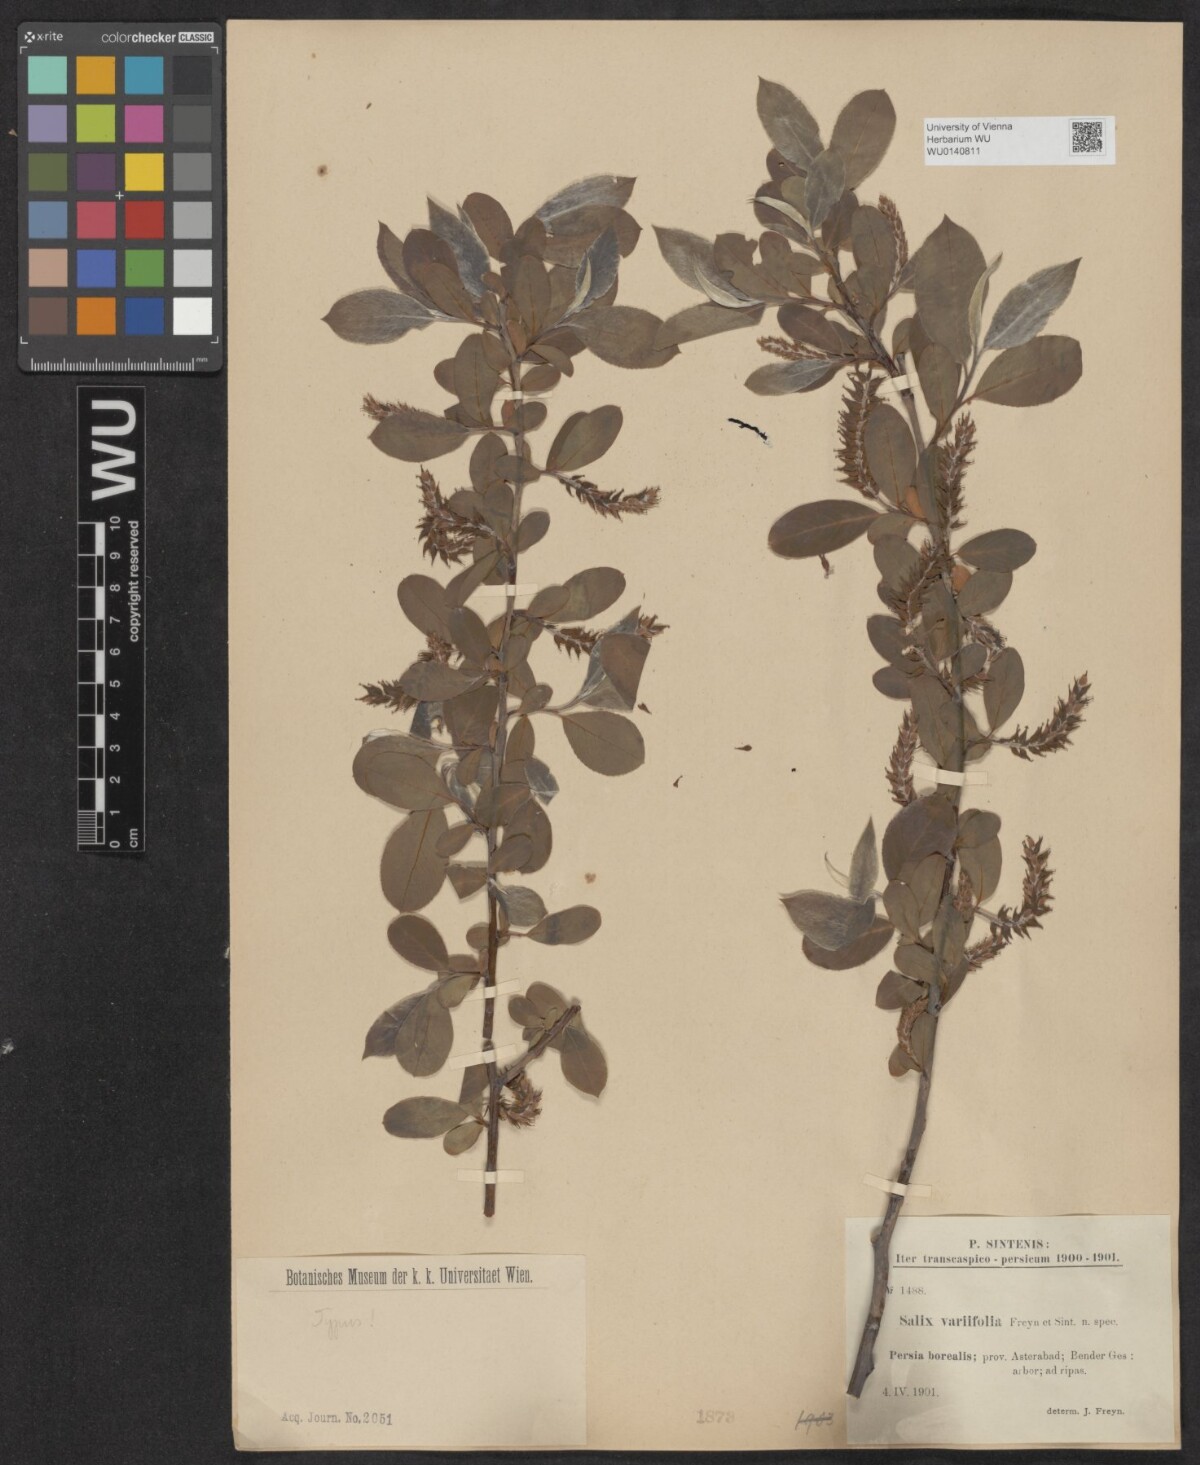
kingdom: Plantae
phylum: Tracheophyta
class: Magnoliopsida
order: Malpighiales
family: Salicaceae
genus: Salix
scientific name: Salix excelsa
